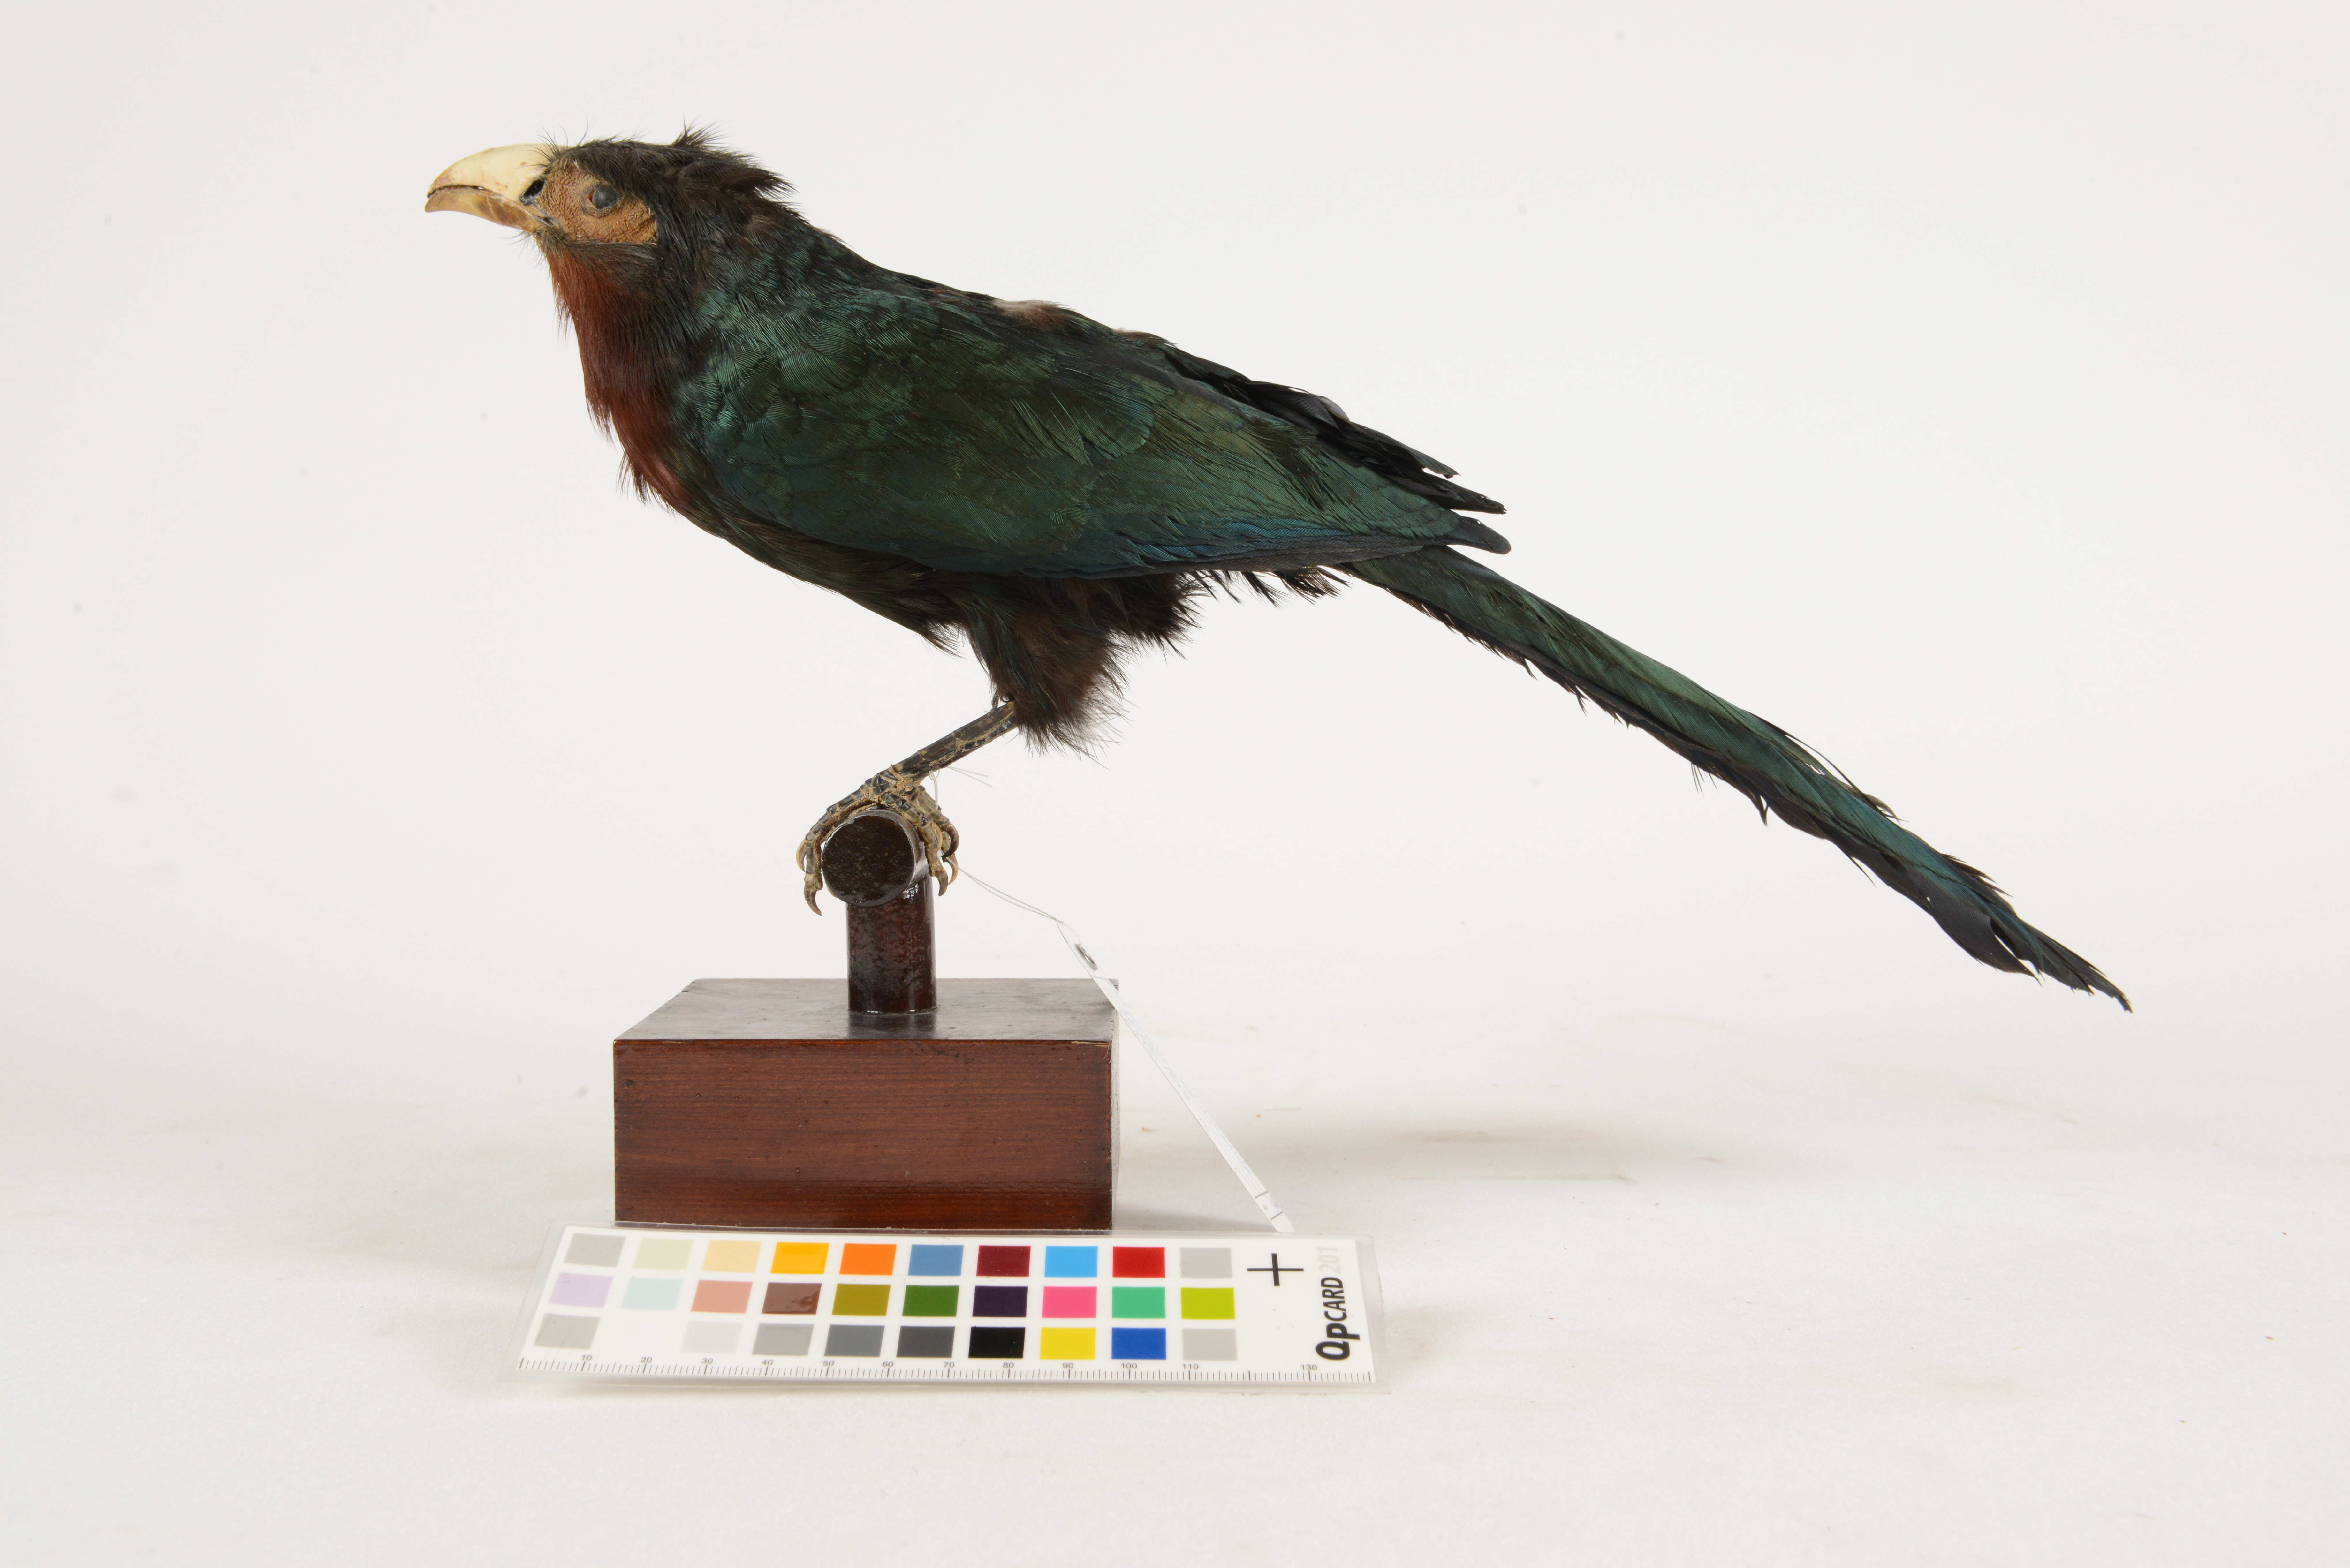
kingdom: Animalia
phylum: Chordata
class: Aves
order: Cuculiformes
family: Cuculidae
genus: Zanclostomus
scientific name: Zanclostomus curvirostris
